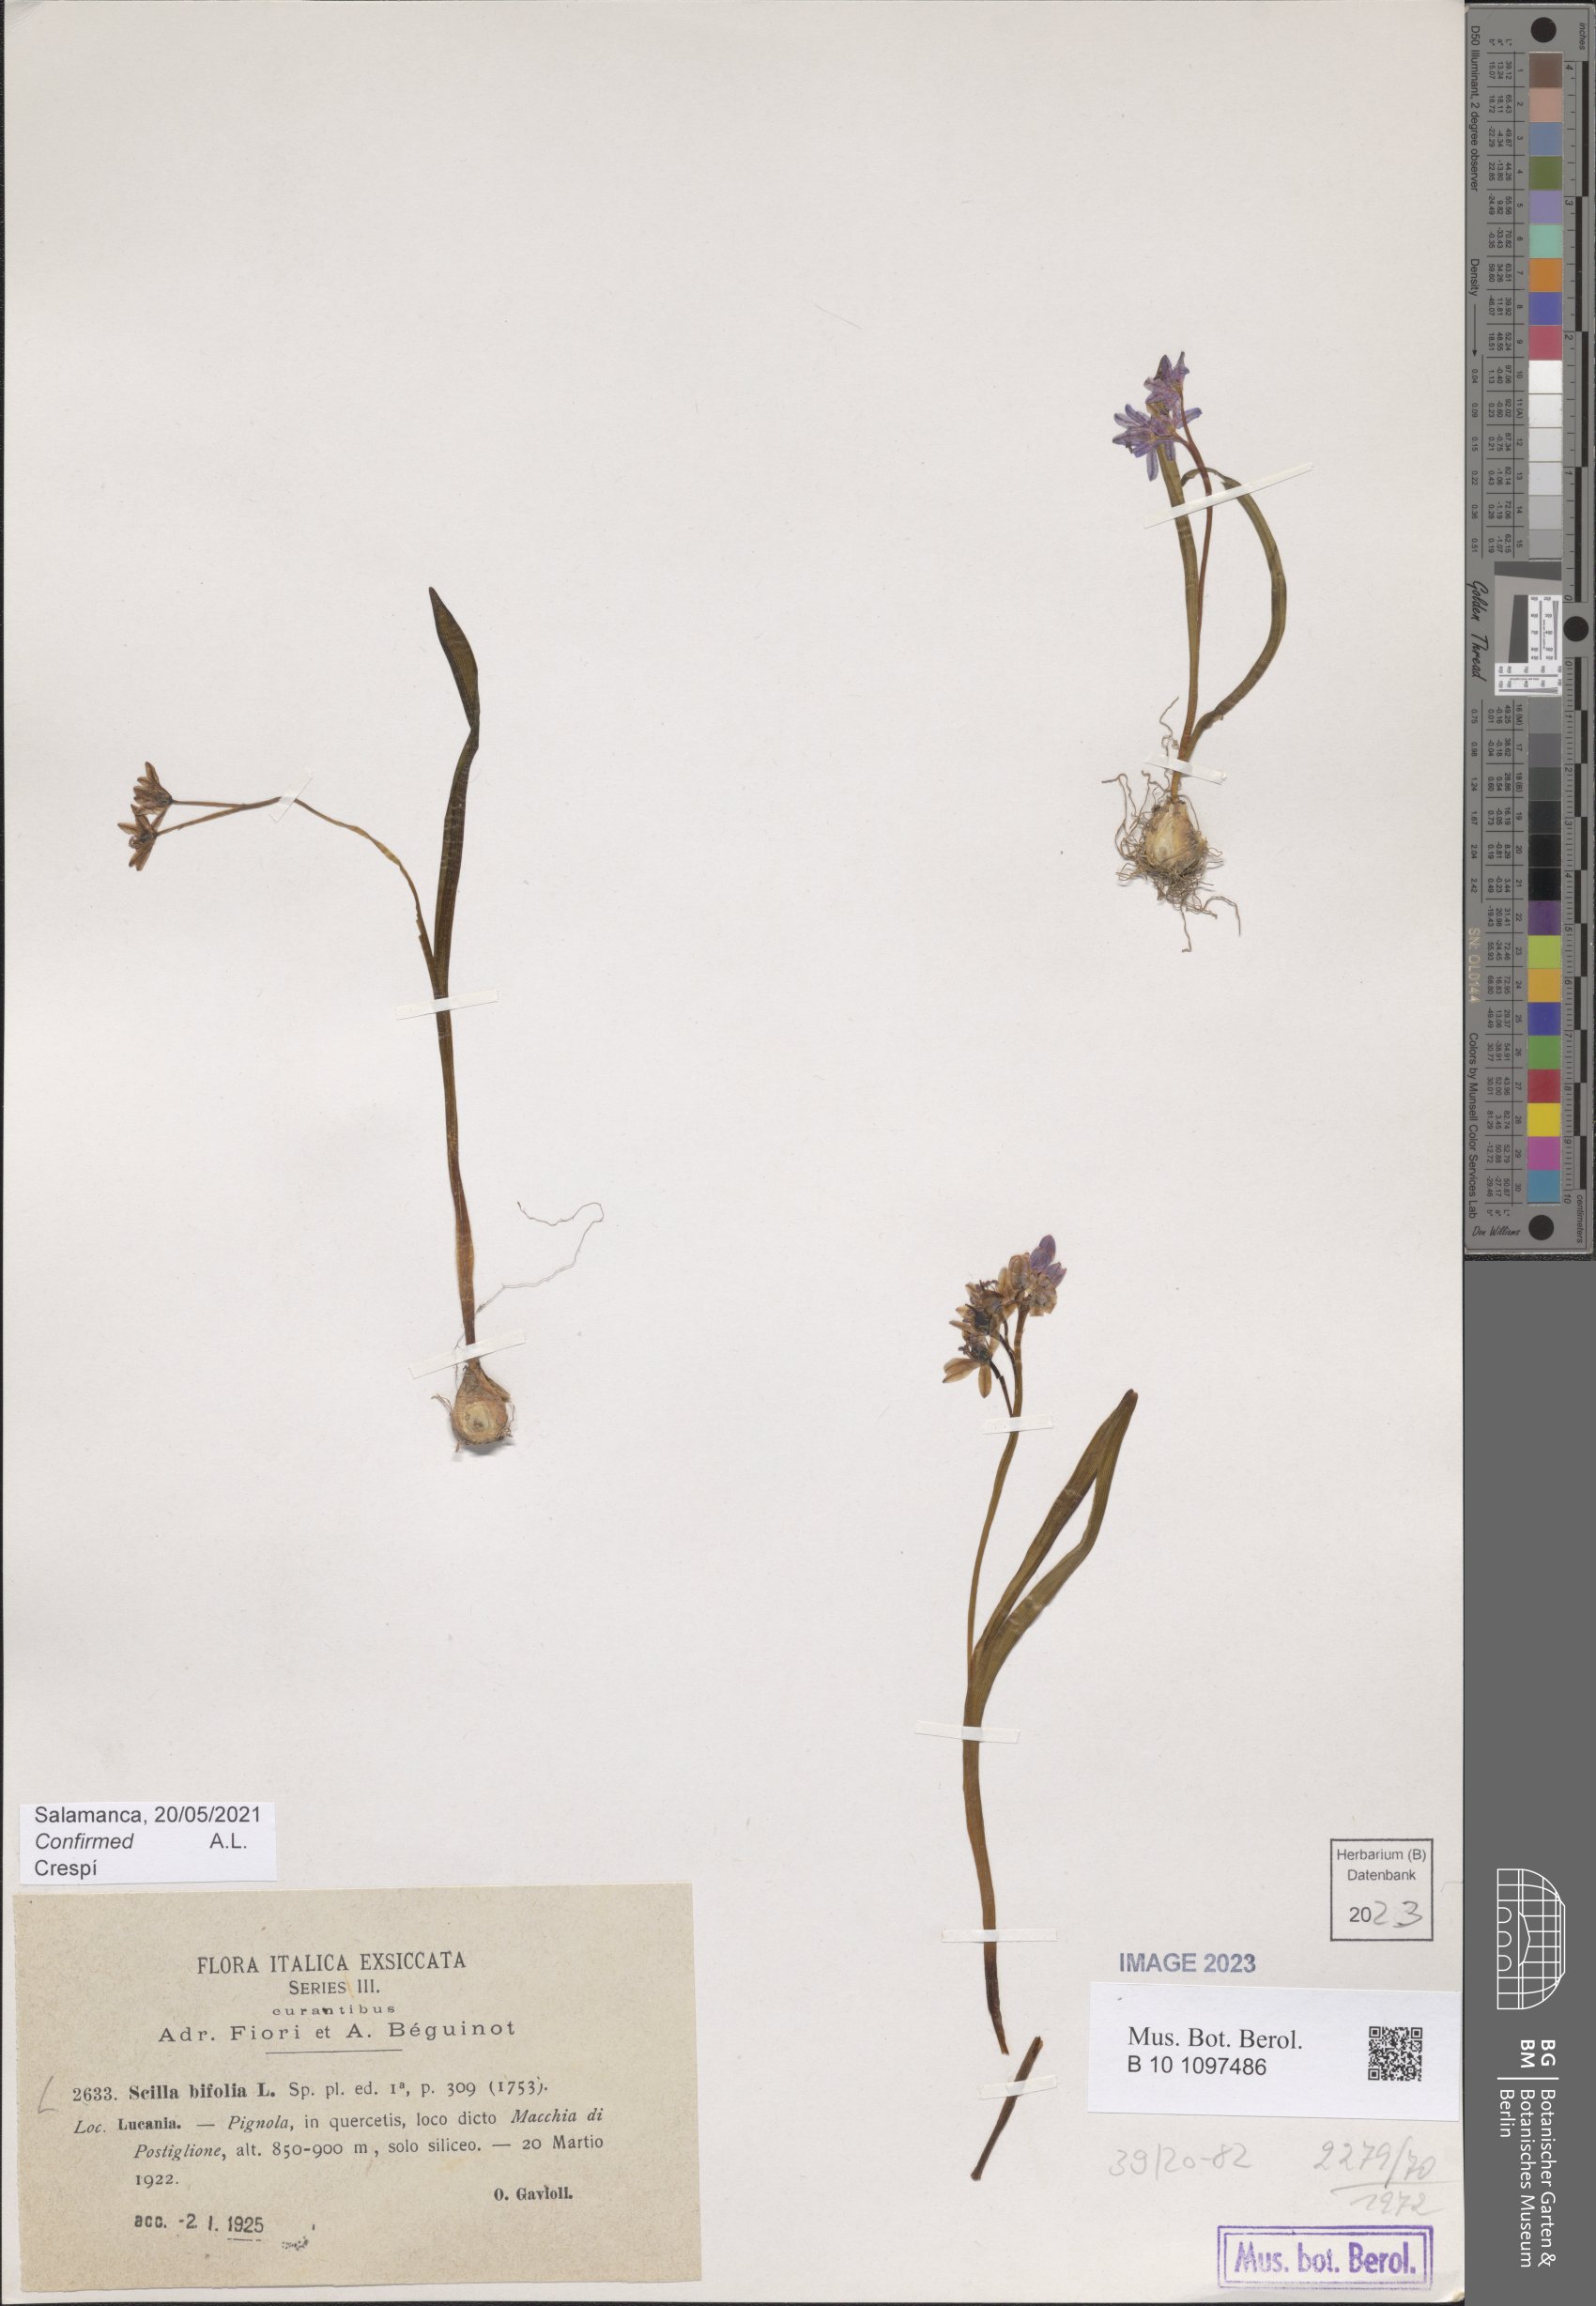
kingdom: Plantae
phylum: Tracheophyta
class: Liliopsida
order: Asparagales
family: Asparagaceae
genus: Scilla
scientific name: Scilla bifolia
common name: Alpine squill
